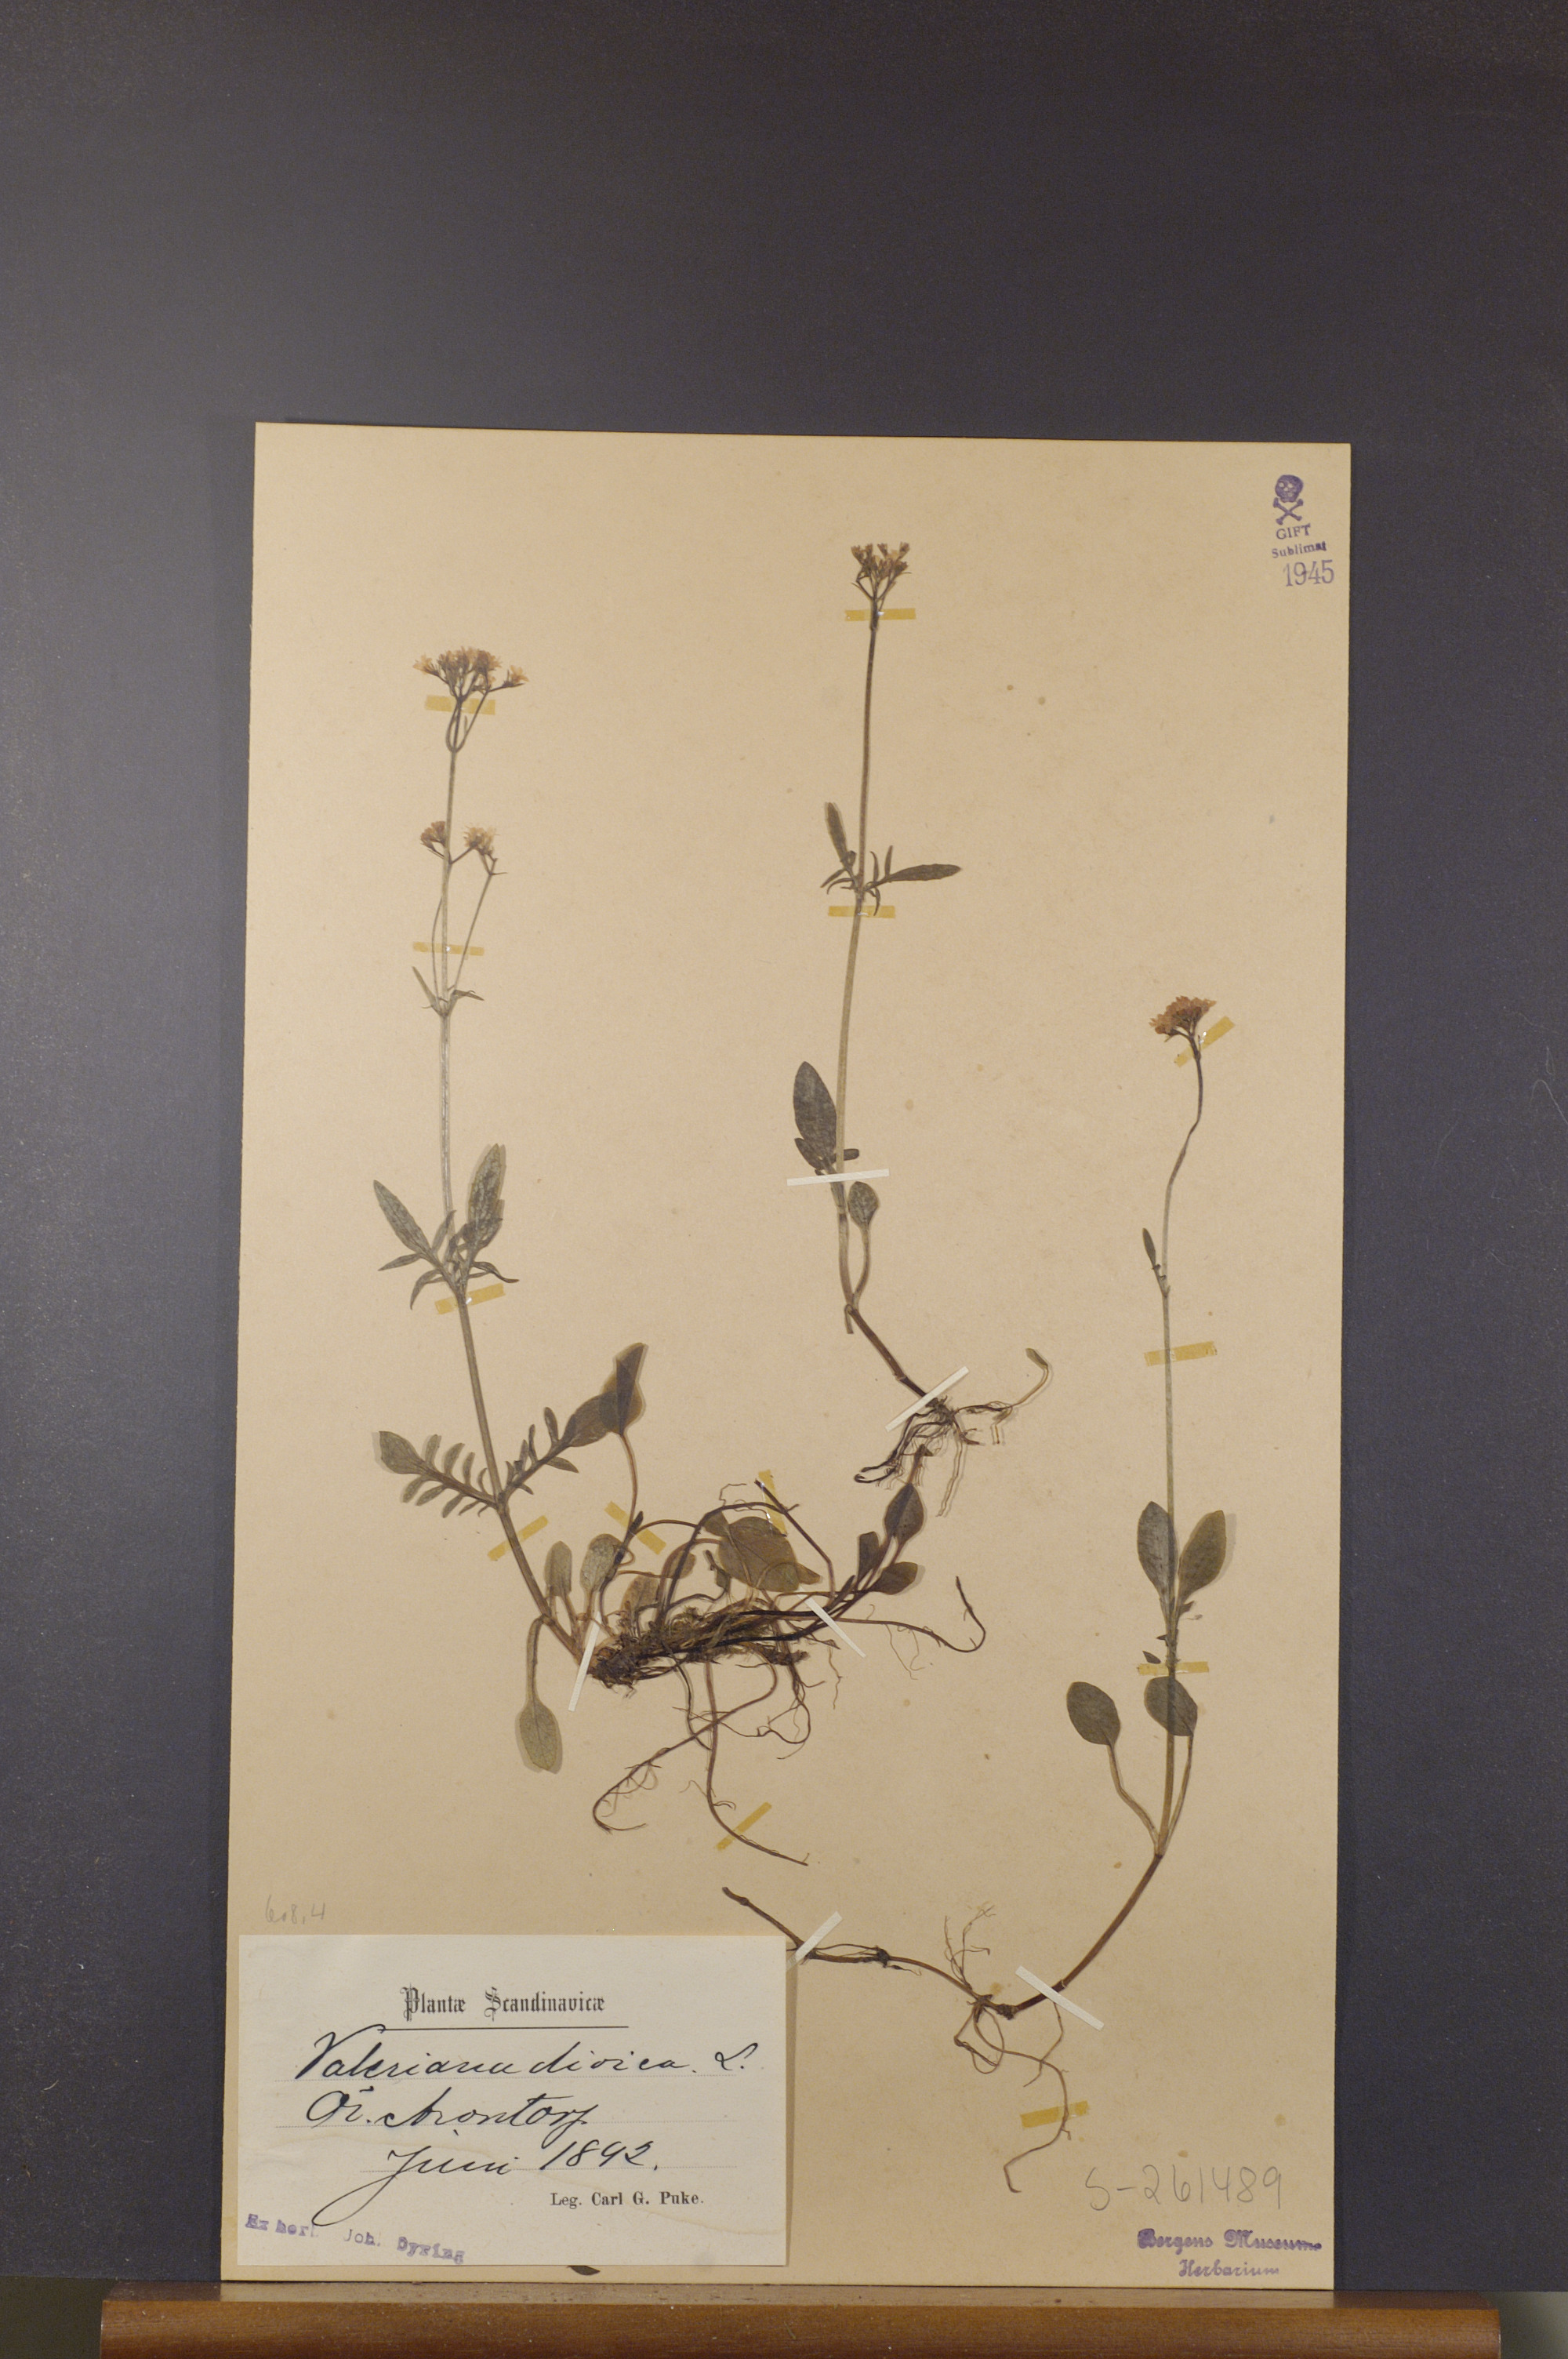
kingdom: Plantae
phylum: Tracheophyta
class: Magnoliopsida
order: Dipsacales
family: Caprifoliaceae
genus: Valeriana
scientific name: Valeriana dioica
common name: Marsh valerian
